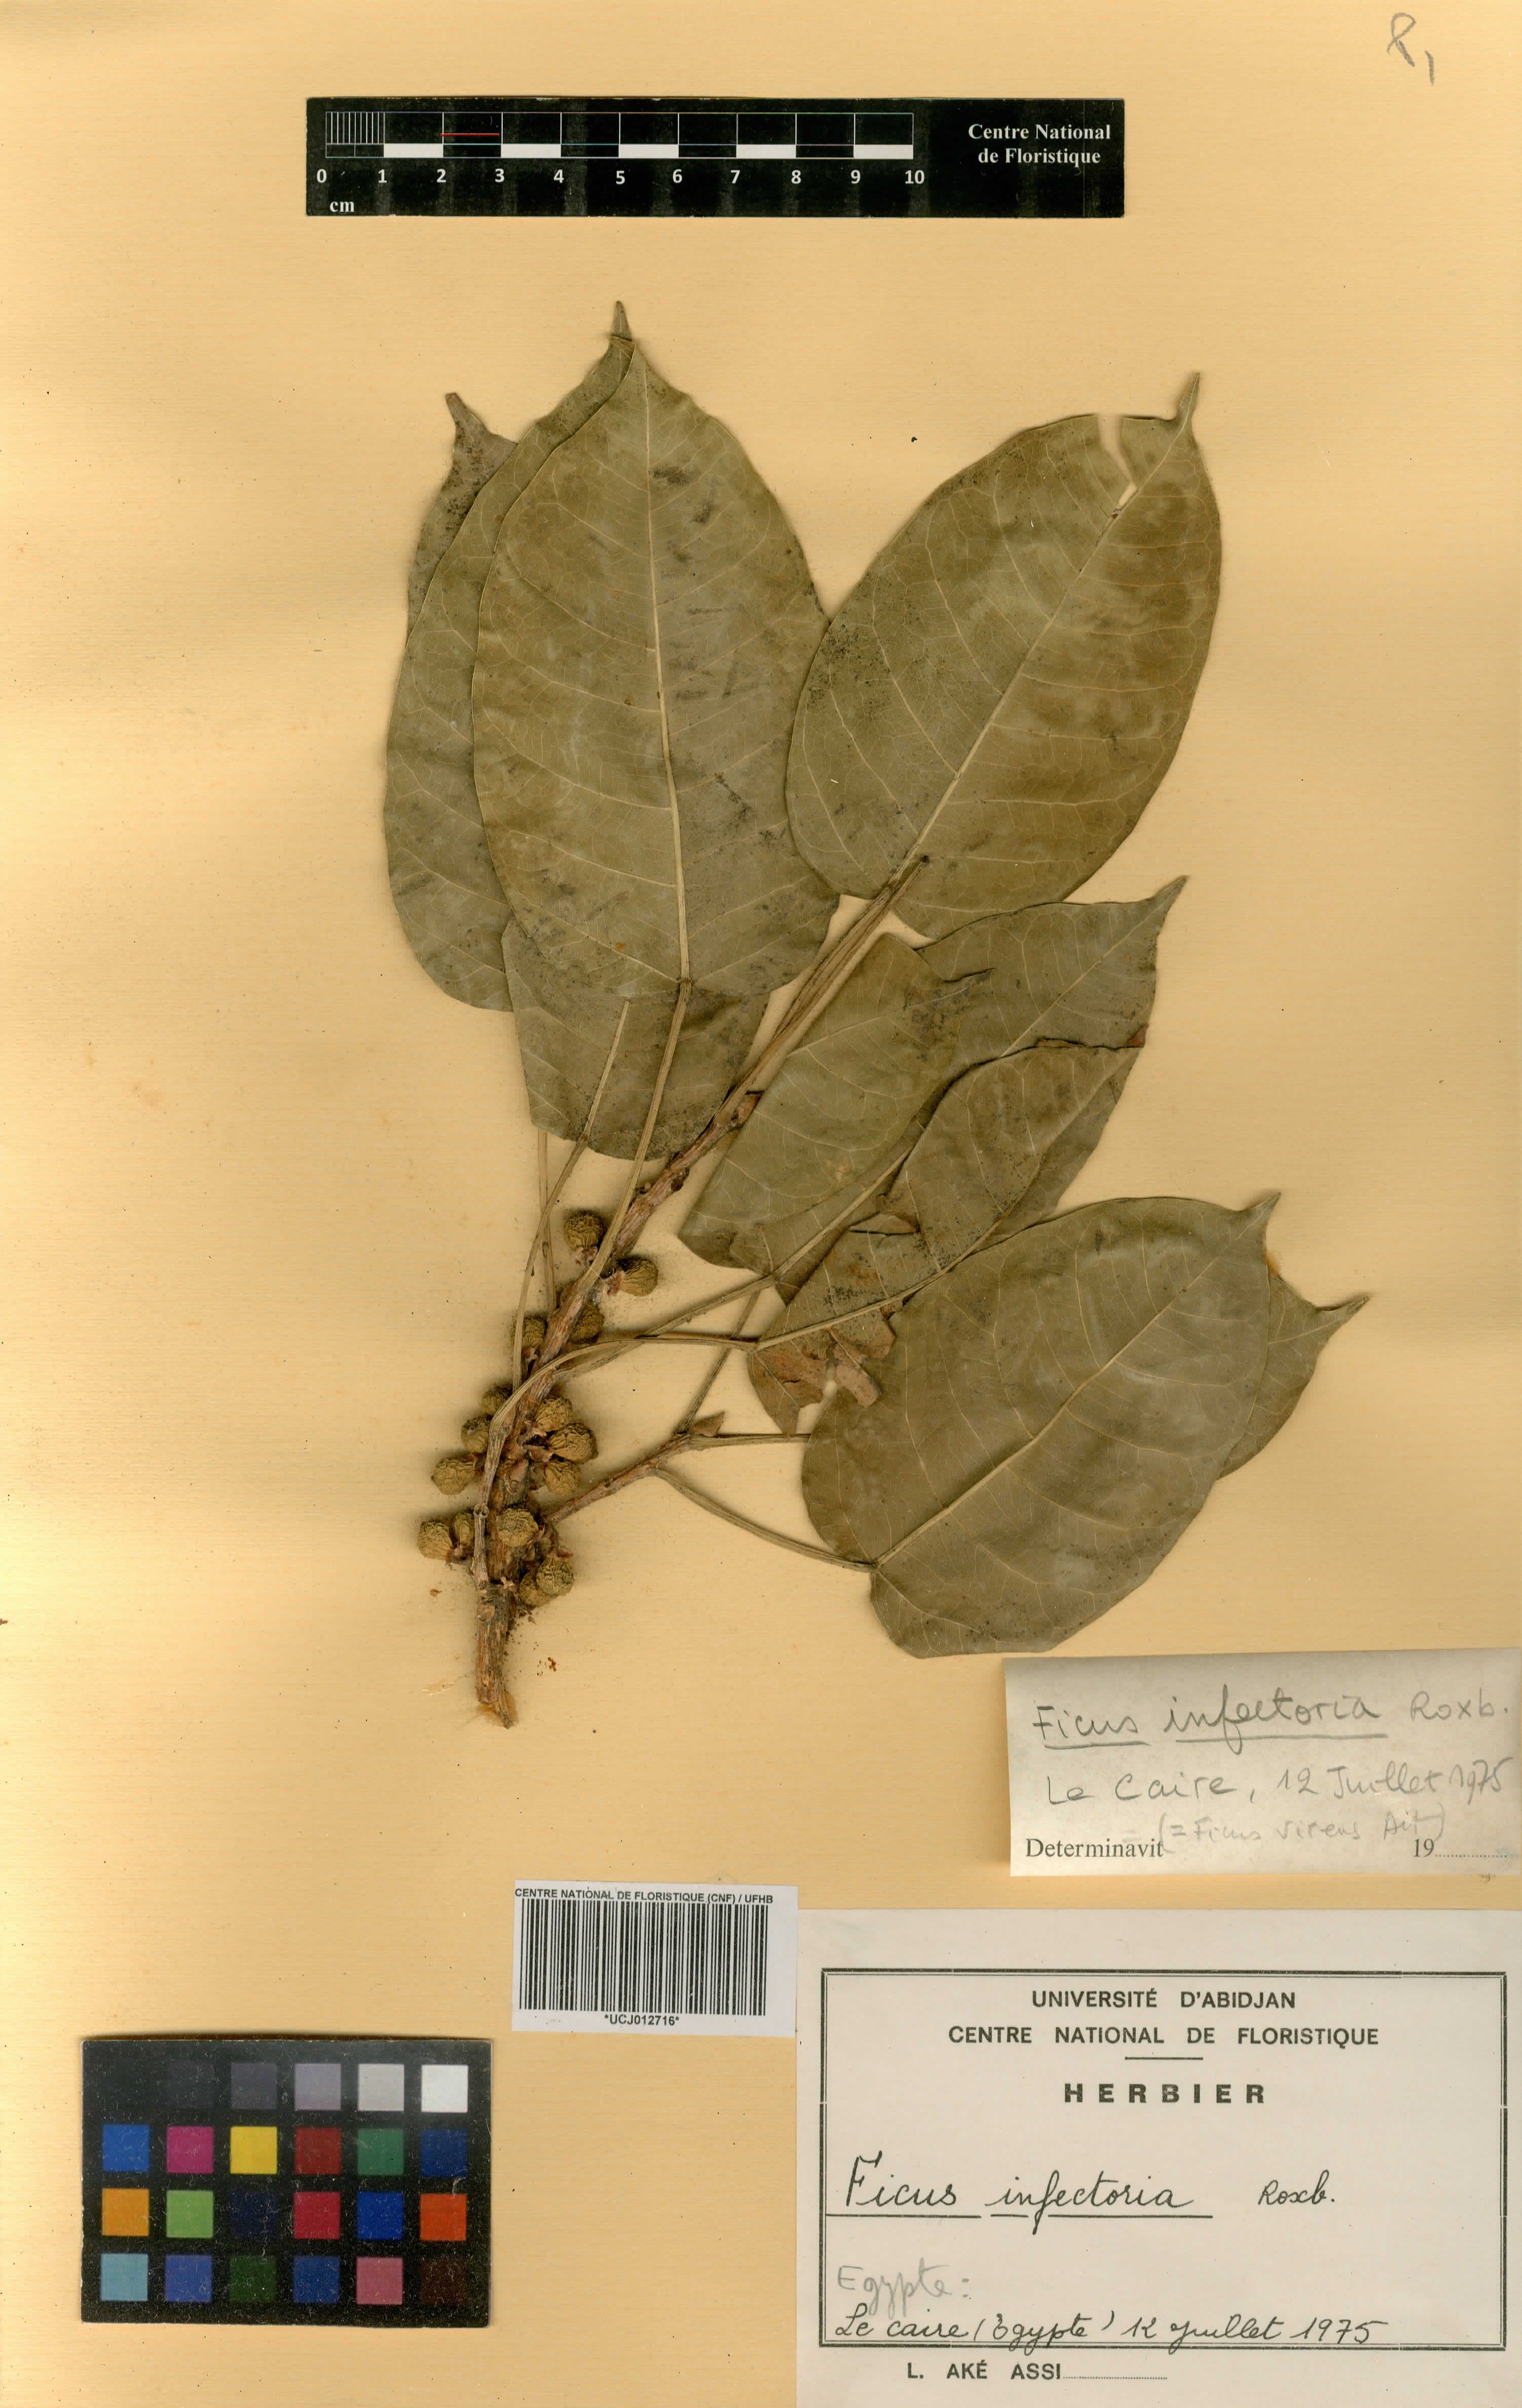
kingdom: Plantae
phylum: Tracheophyta
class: Magnoliopsida
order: Rosales
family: Moraceae
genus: Ficus
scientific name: Ficus
